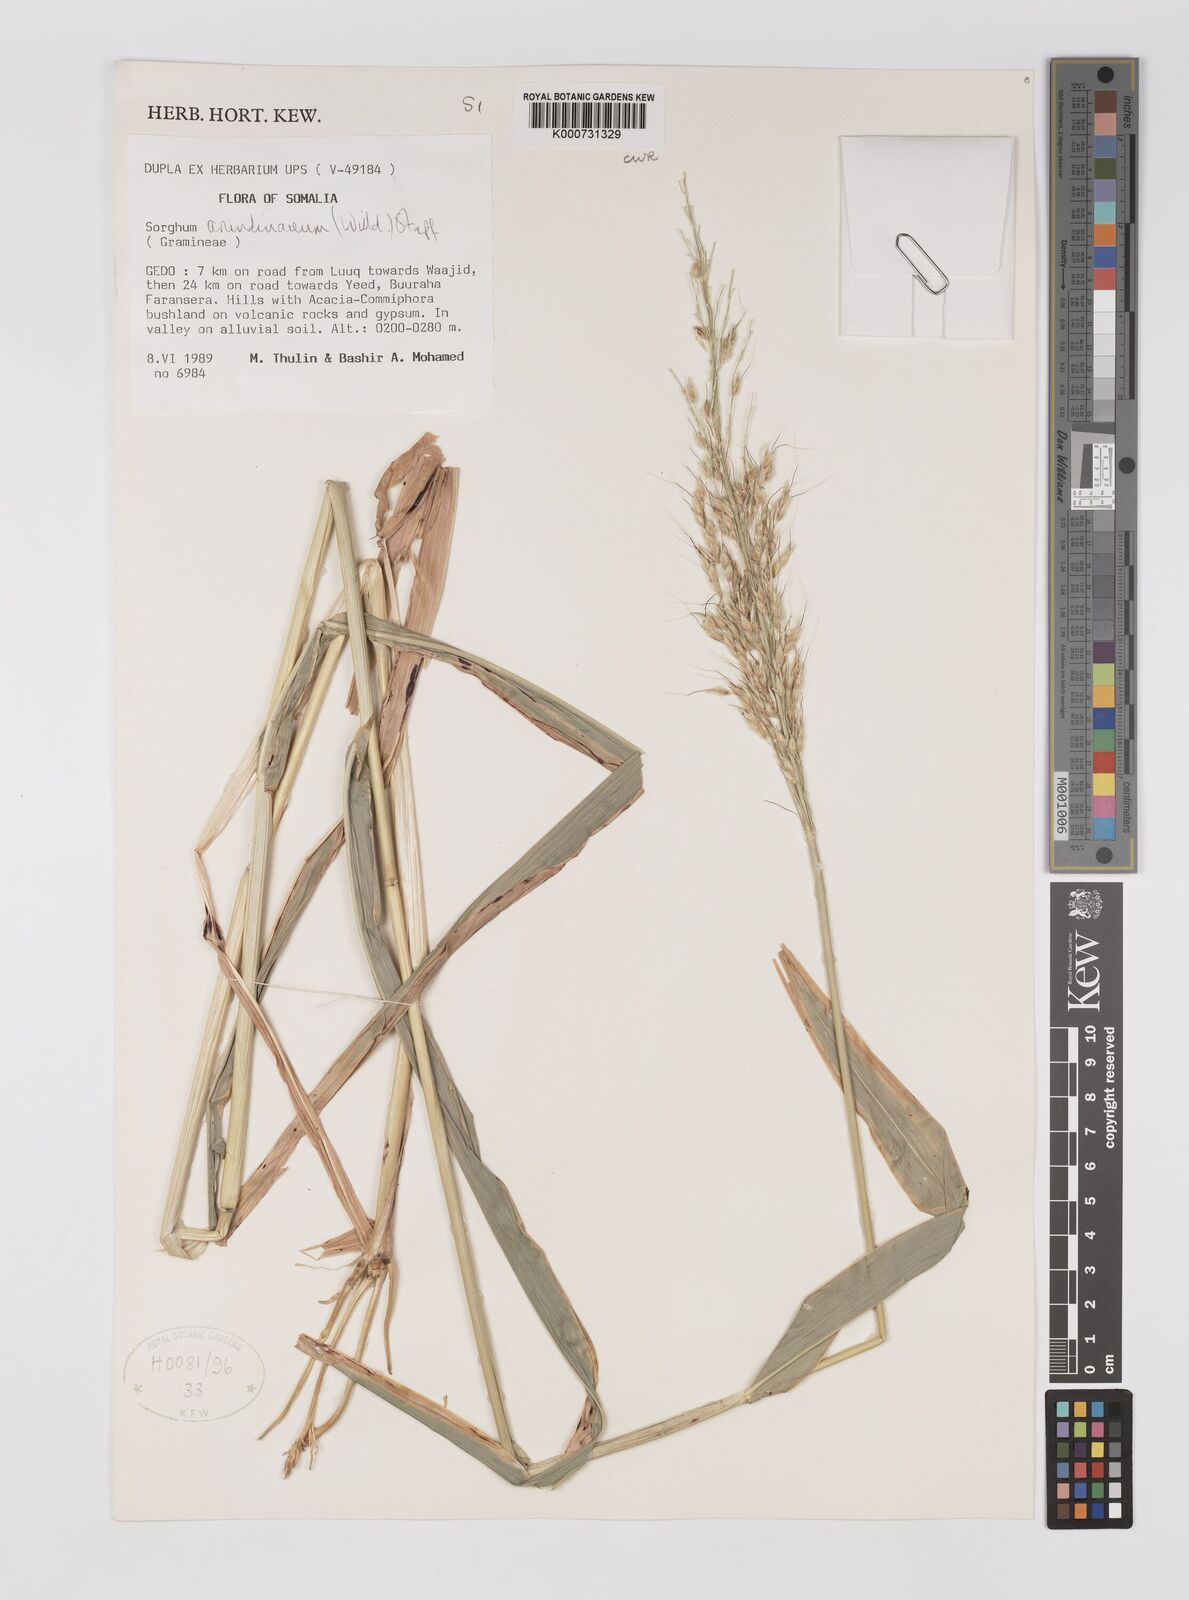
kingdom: Plantae
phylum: Tracheophyta
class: Liliopsida
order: Poales
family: Poaceae
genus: Sorghum
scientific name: Sorghum arundinaceum
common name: Sorghum
